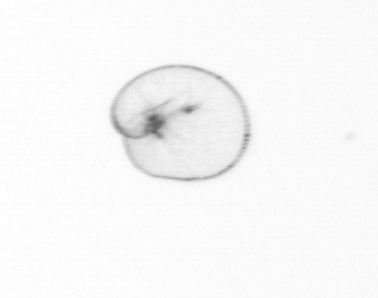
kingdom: Chromista
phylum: Myzozoa
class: Dinophyceae
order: Noctilucales
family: Noctilucaceae
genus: Noctiluca
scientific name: Noctiluca scintillans
